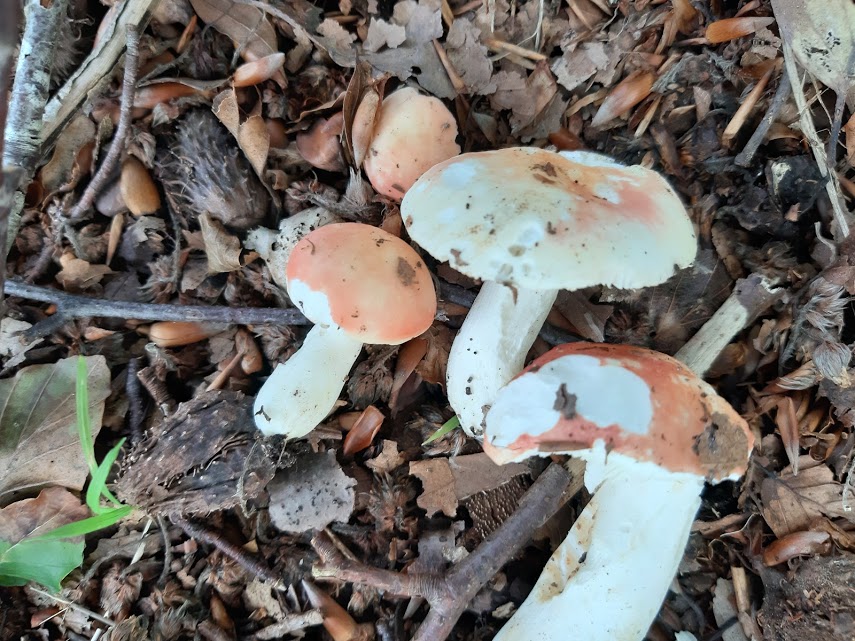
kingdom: Fungi
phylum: Basidiomycota
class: Agaricomycetes
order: Russulales
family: Russulaceae
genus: Russula
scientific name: Russula
